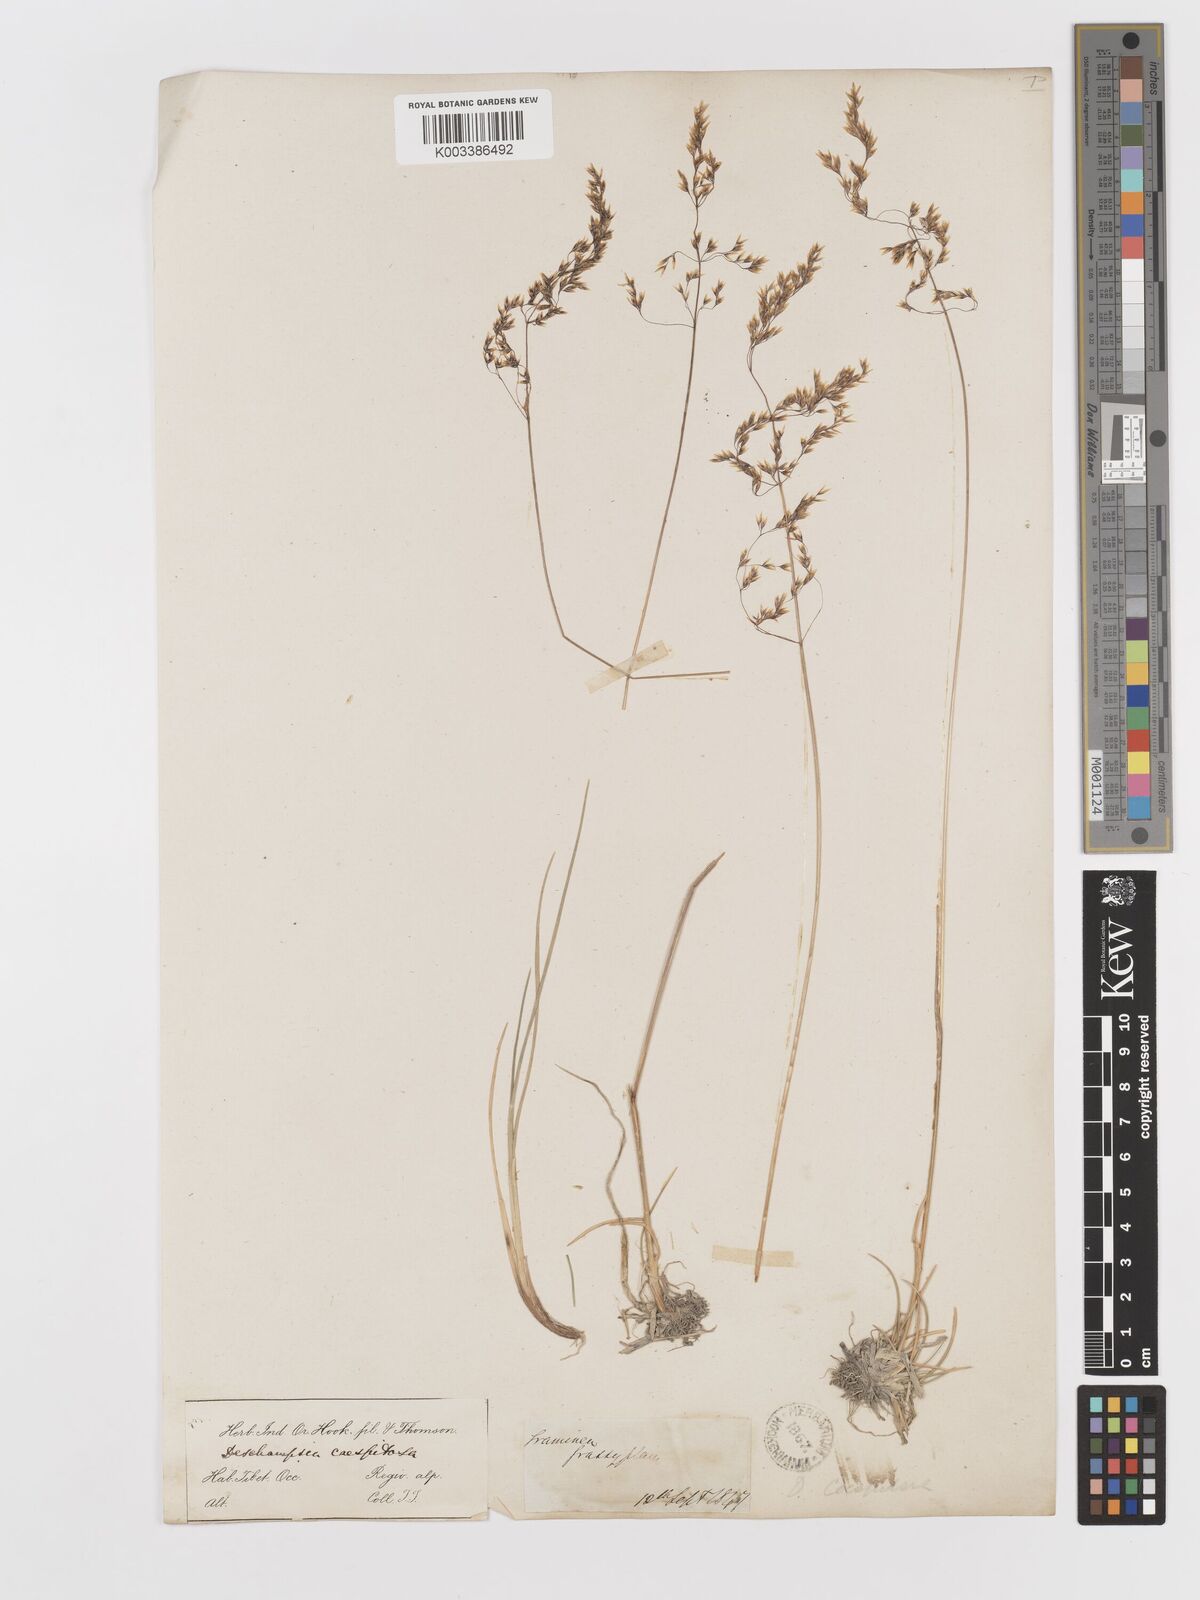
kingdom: Plantae
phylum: Tracheophyta
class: Liliopsida
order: Poales
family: Poaceae
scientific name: Poaceae
